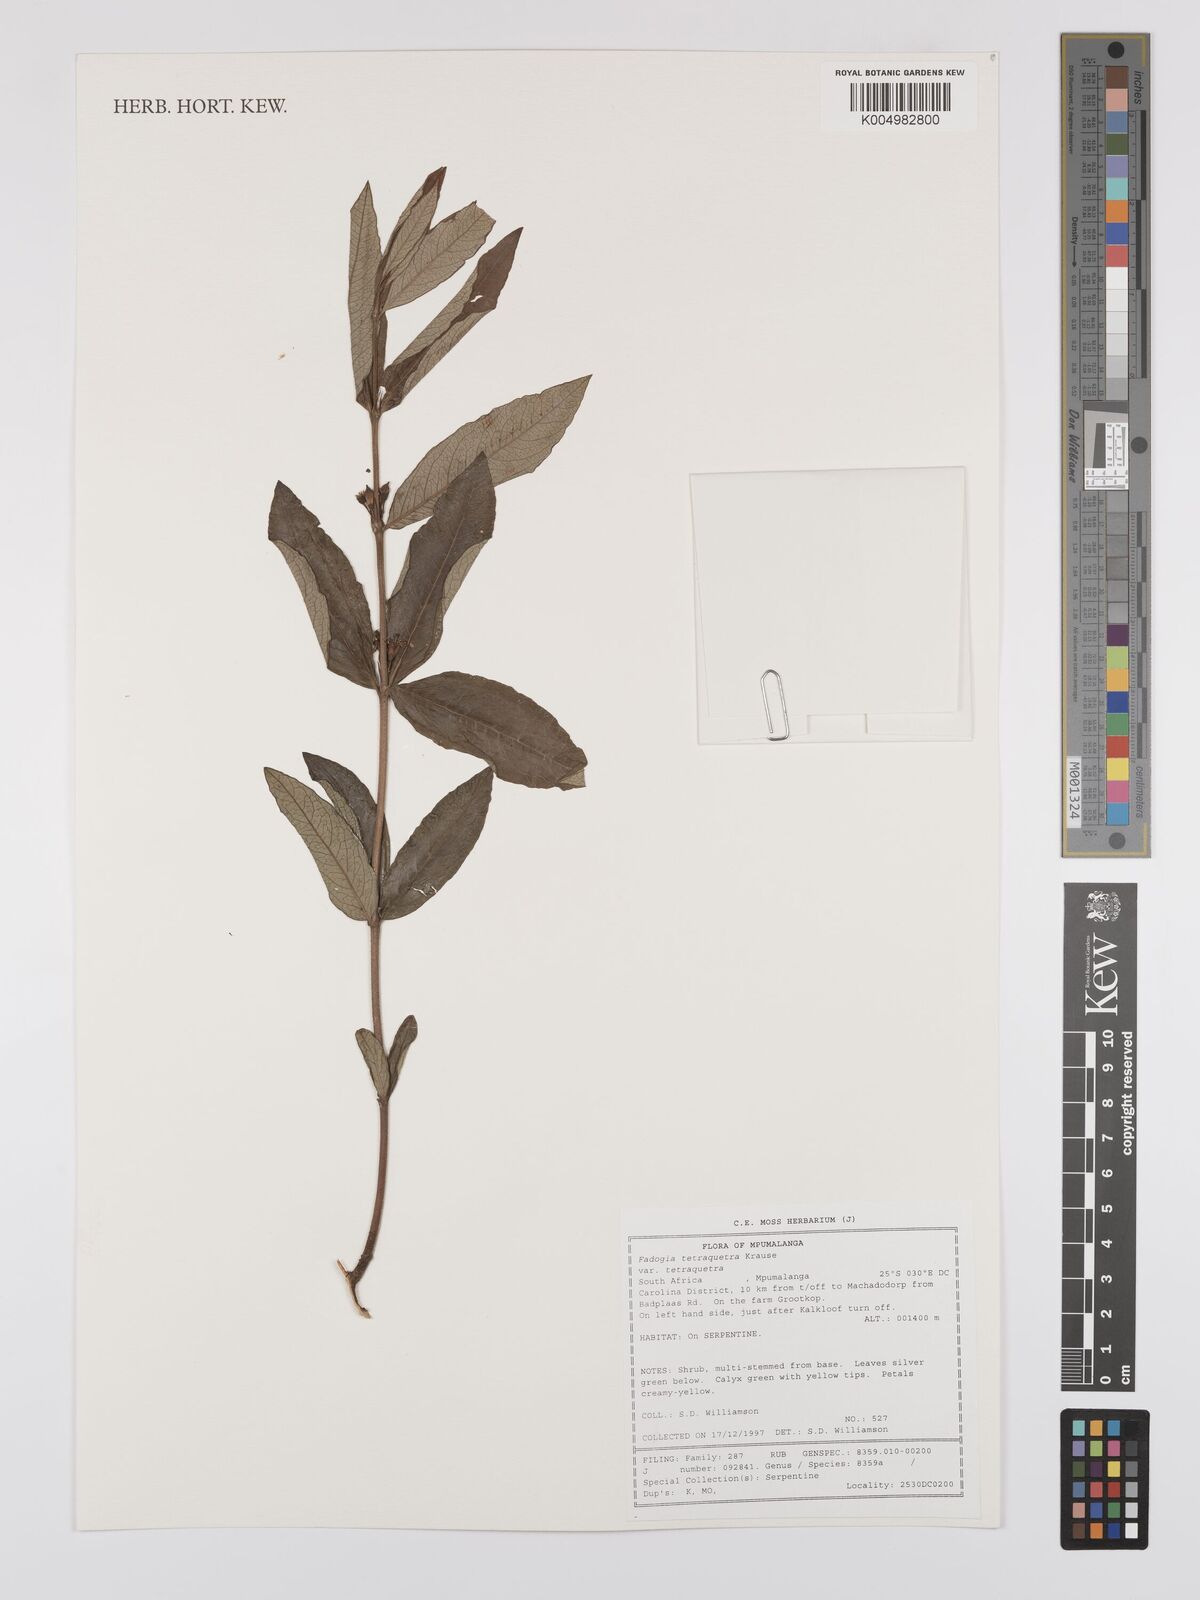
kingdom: Plantae
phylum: Tracheophyta
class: Magnoliopsida
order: Gentianales
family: Rubiaceae
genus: Fadogia
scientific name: Fadogia tetraquetra
